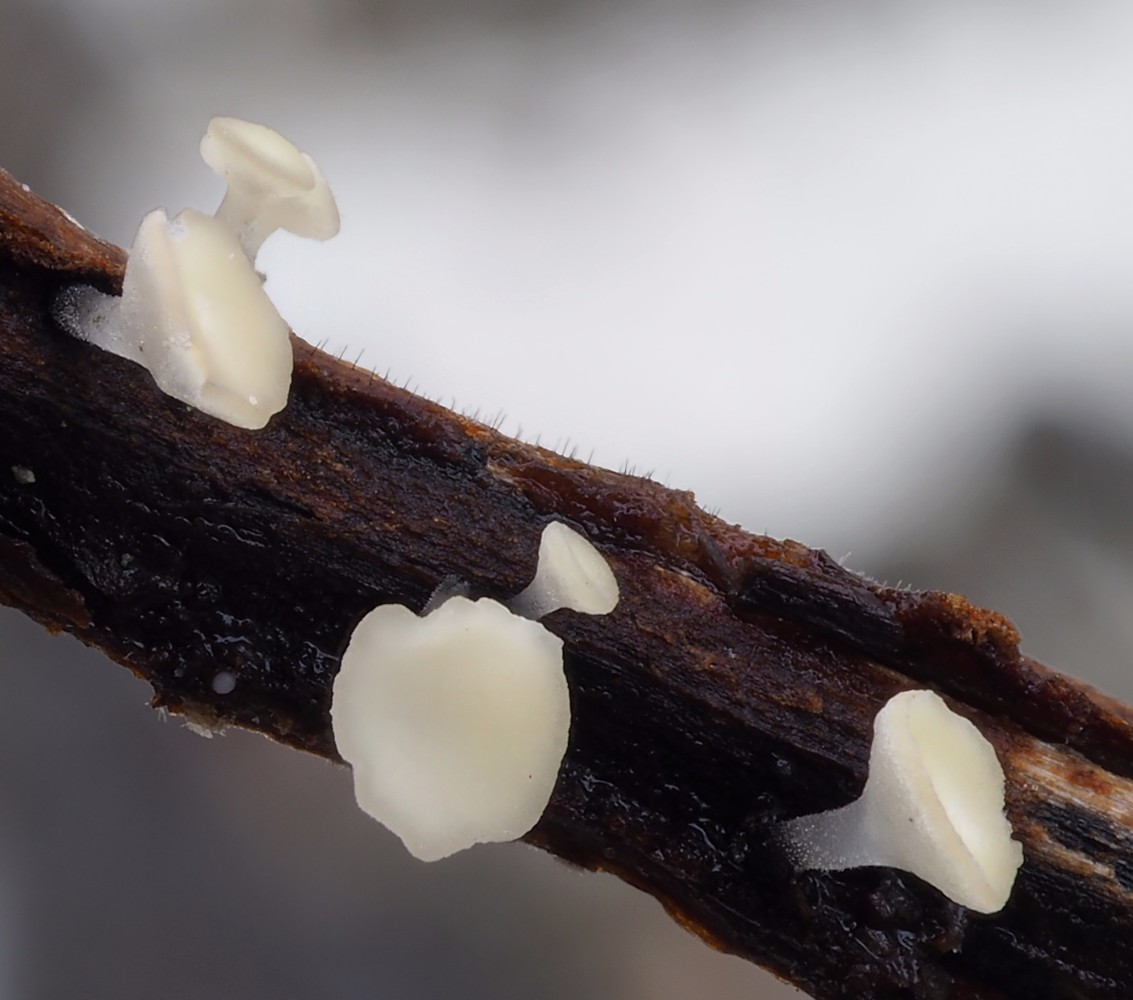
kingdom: Fungi
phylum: Ascomycota
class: Leotiomycetes
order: Helotiales
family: Helotiaceae
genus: Hymenoscyphus
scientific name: Hymenoscyphus caudatus
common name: blad-stilkskive
